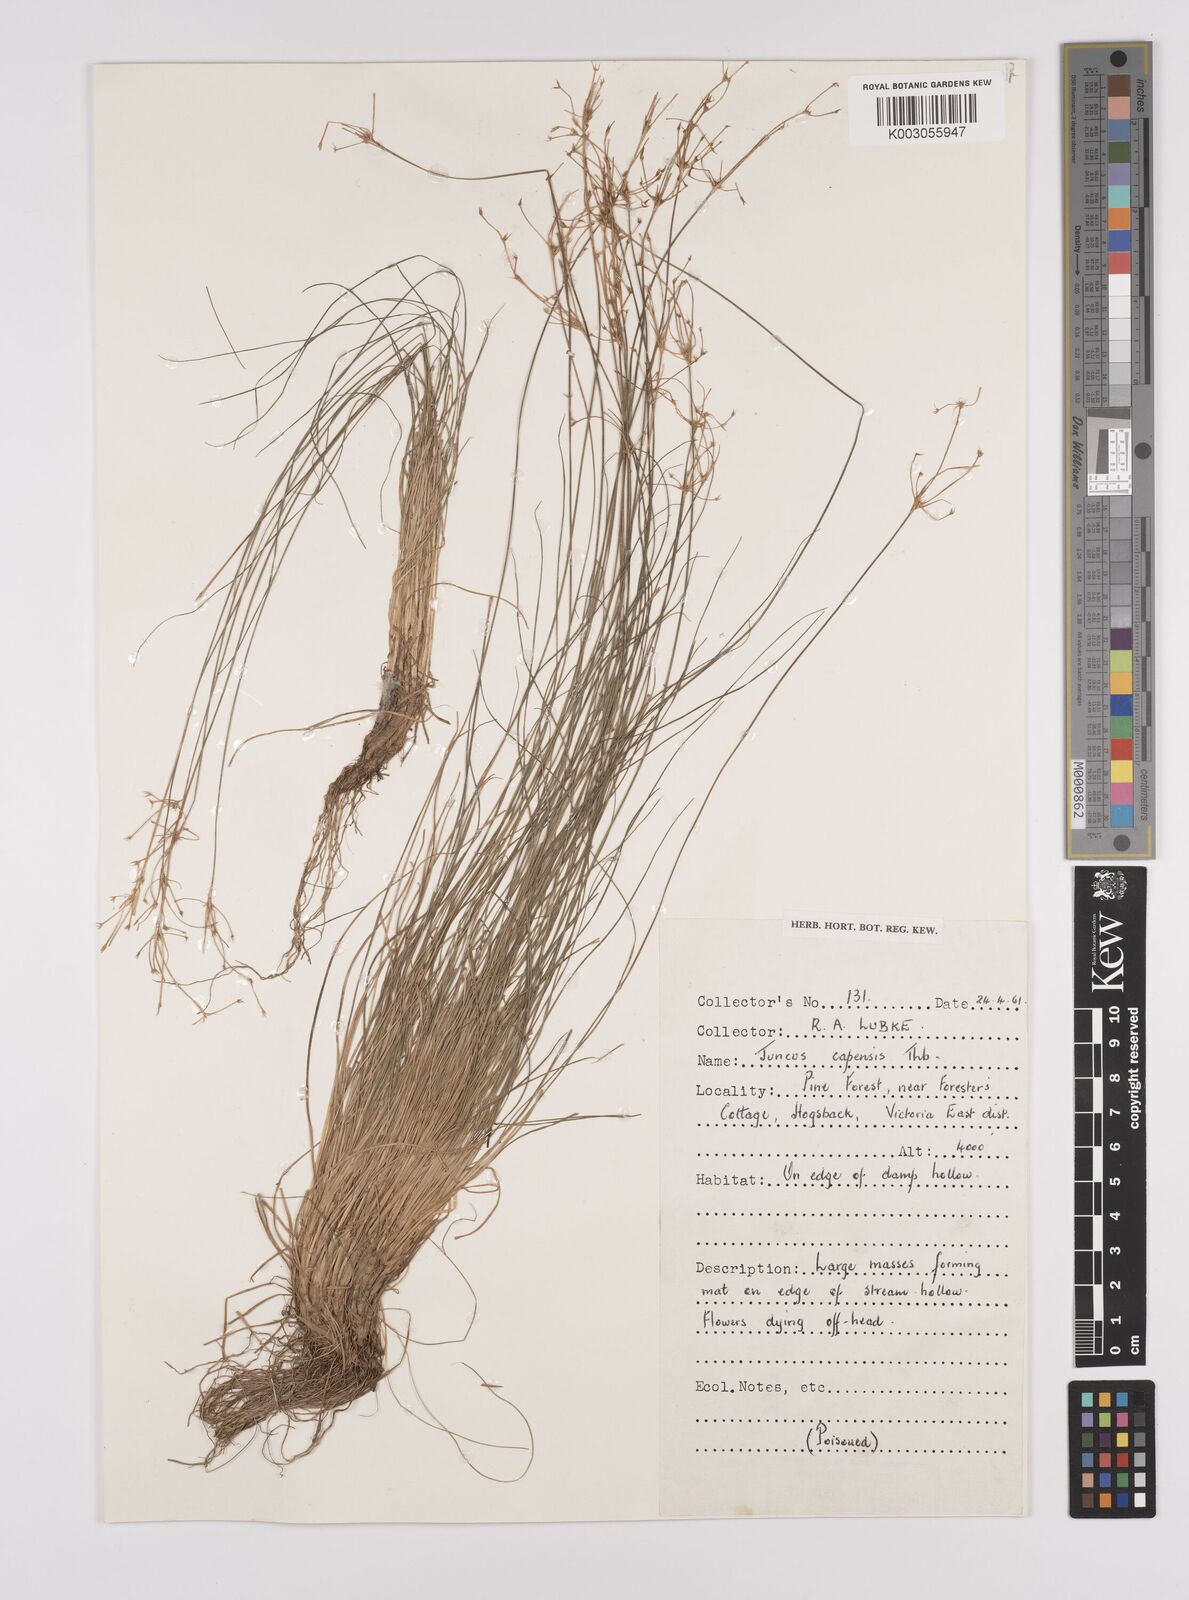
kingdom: Plantae
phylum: Tracheophyta
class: Liliopsida
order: Poales
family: Juncaceae
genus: Juncus
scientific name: Juncus capensis
